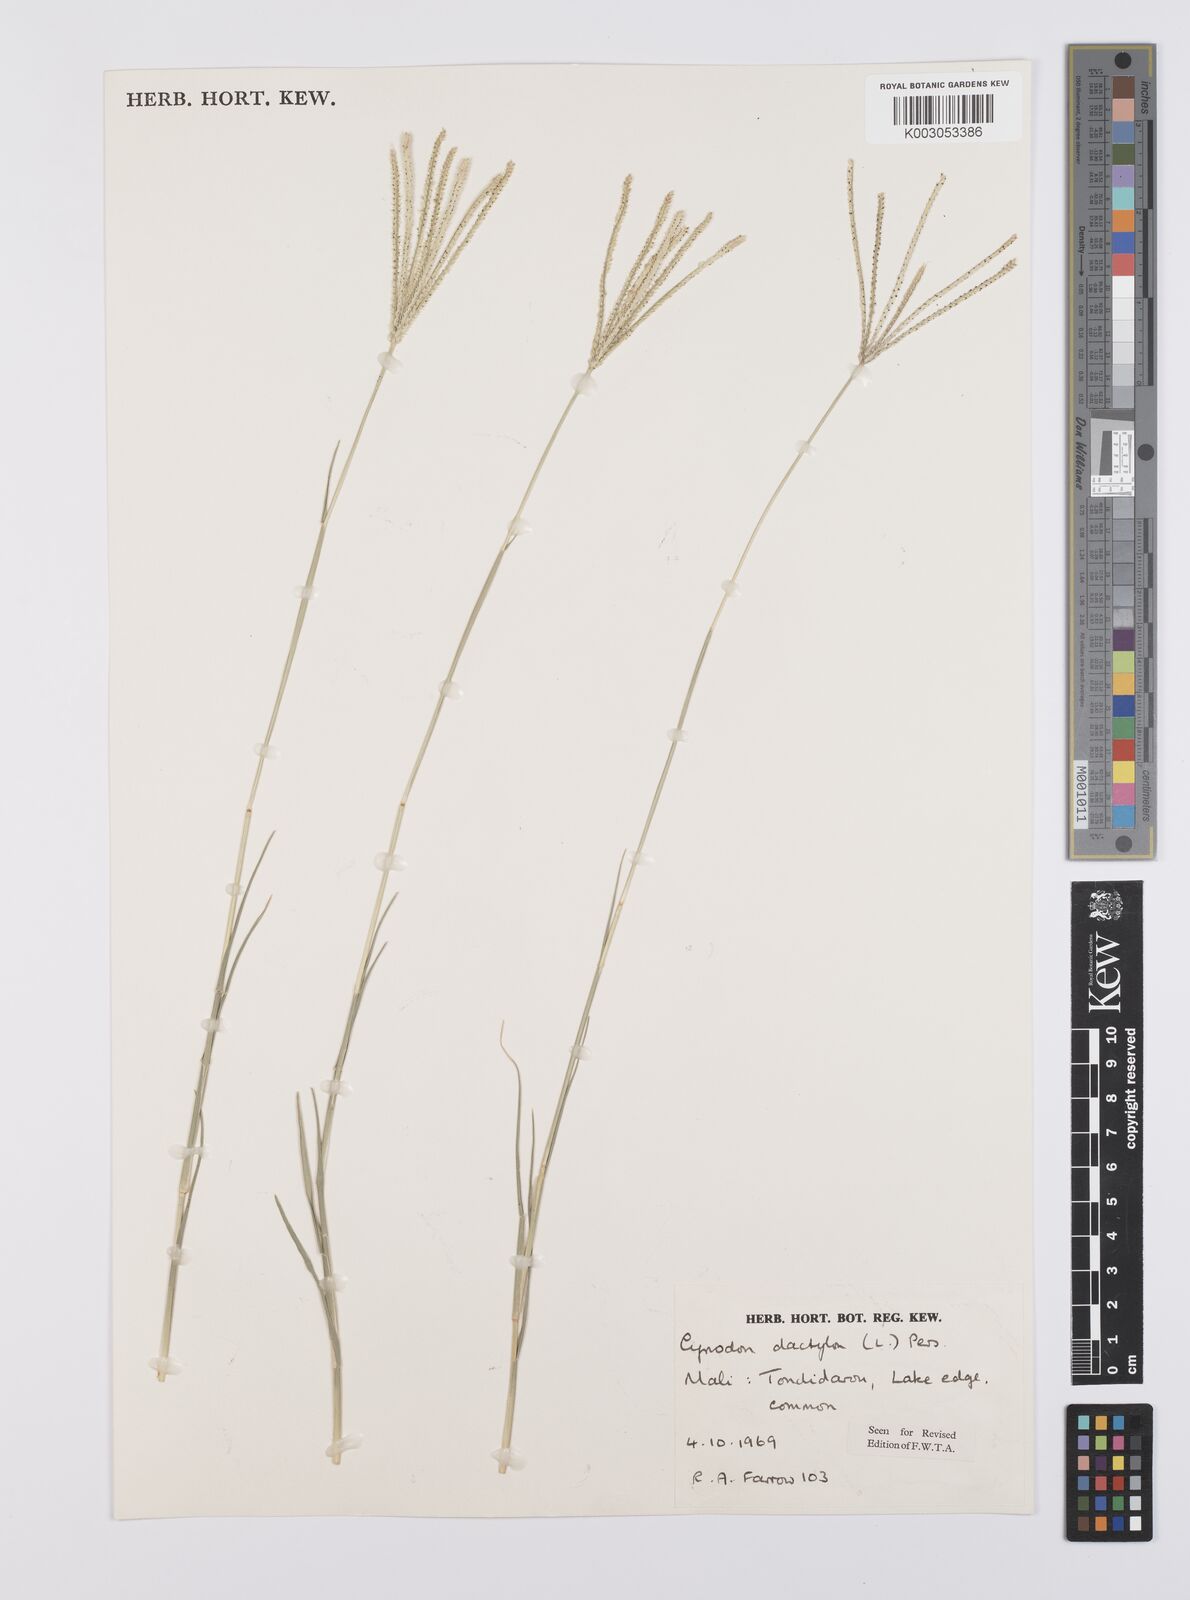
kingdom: Plantae
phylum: Tracheophyta
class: Liliopsida
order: Poales
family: Poaceae
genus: Cynodon
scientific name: Cynodon dactylon
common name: Bermuda grass
